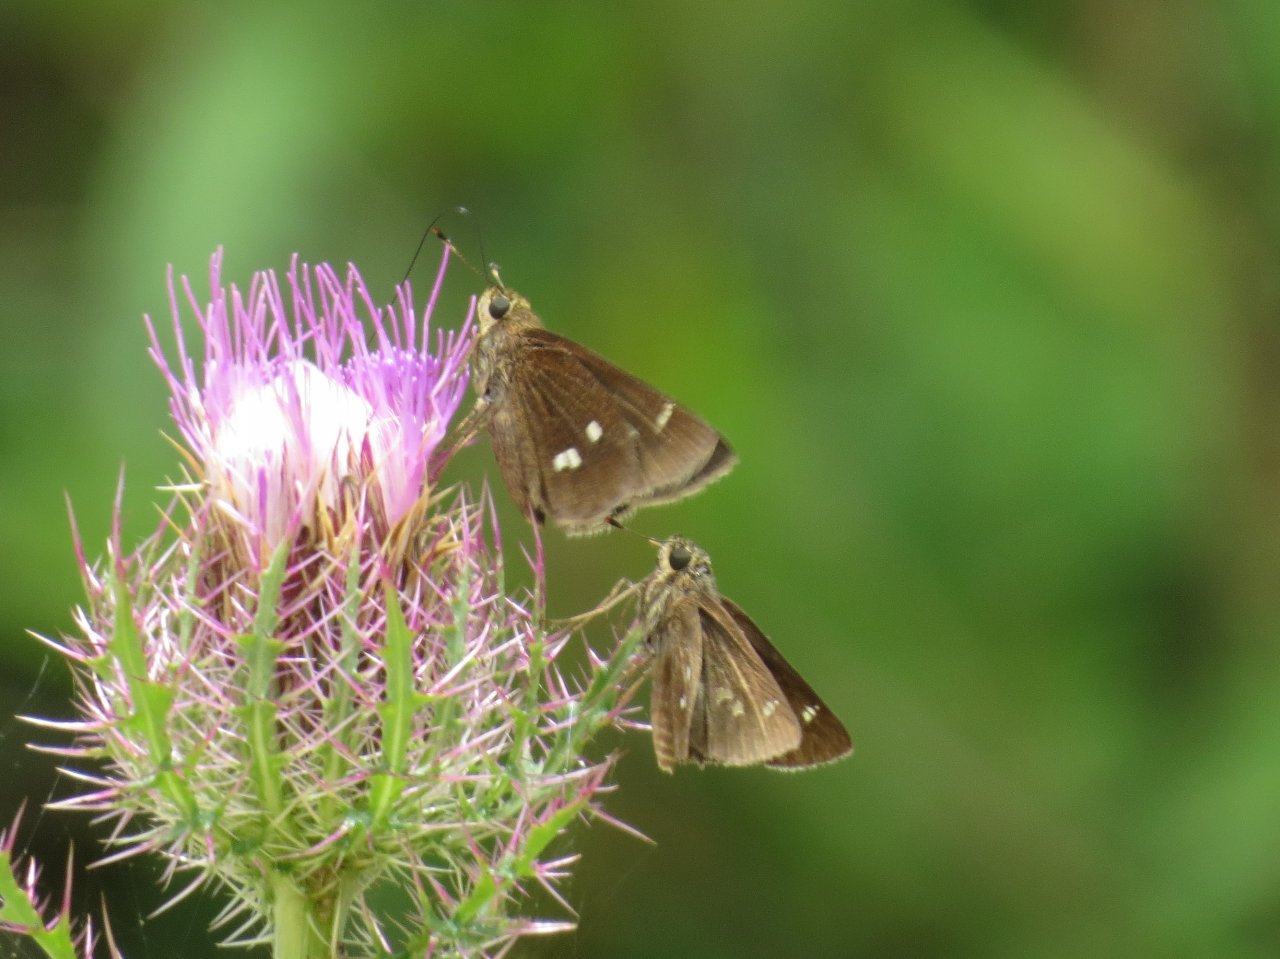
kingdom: Animalia
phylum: Arthropoda
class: Insecta
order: Lepidoptera
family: Hesperiidae
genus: Oligoria
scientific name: Oligoria maculata
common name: Twin-spot Skipper
